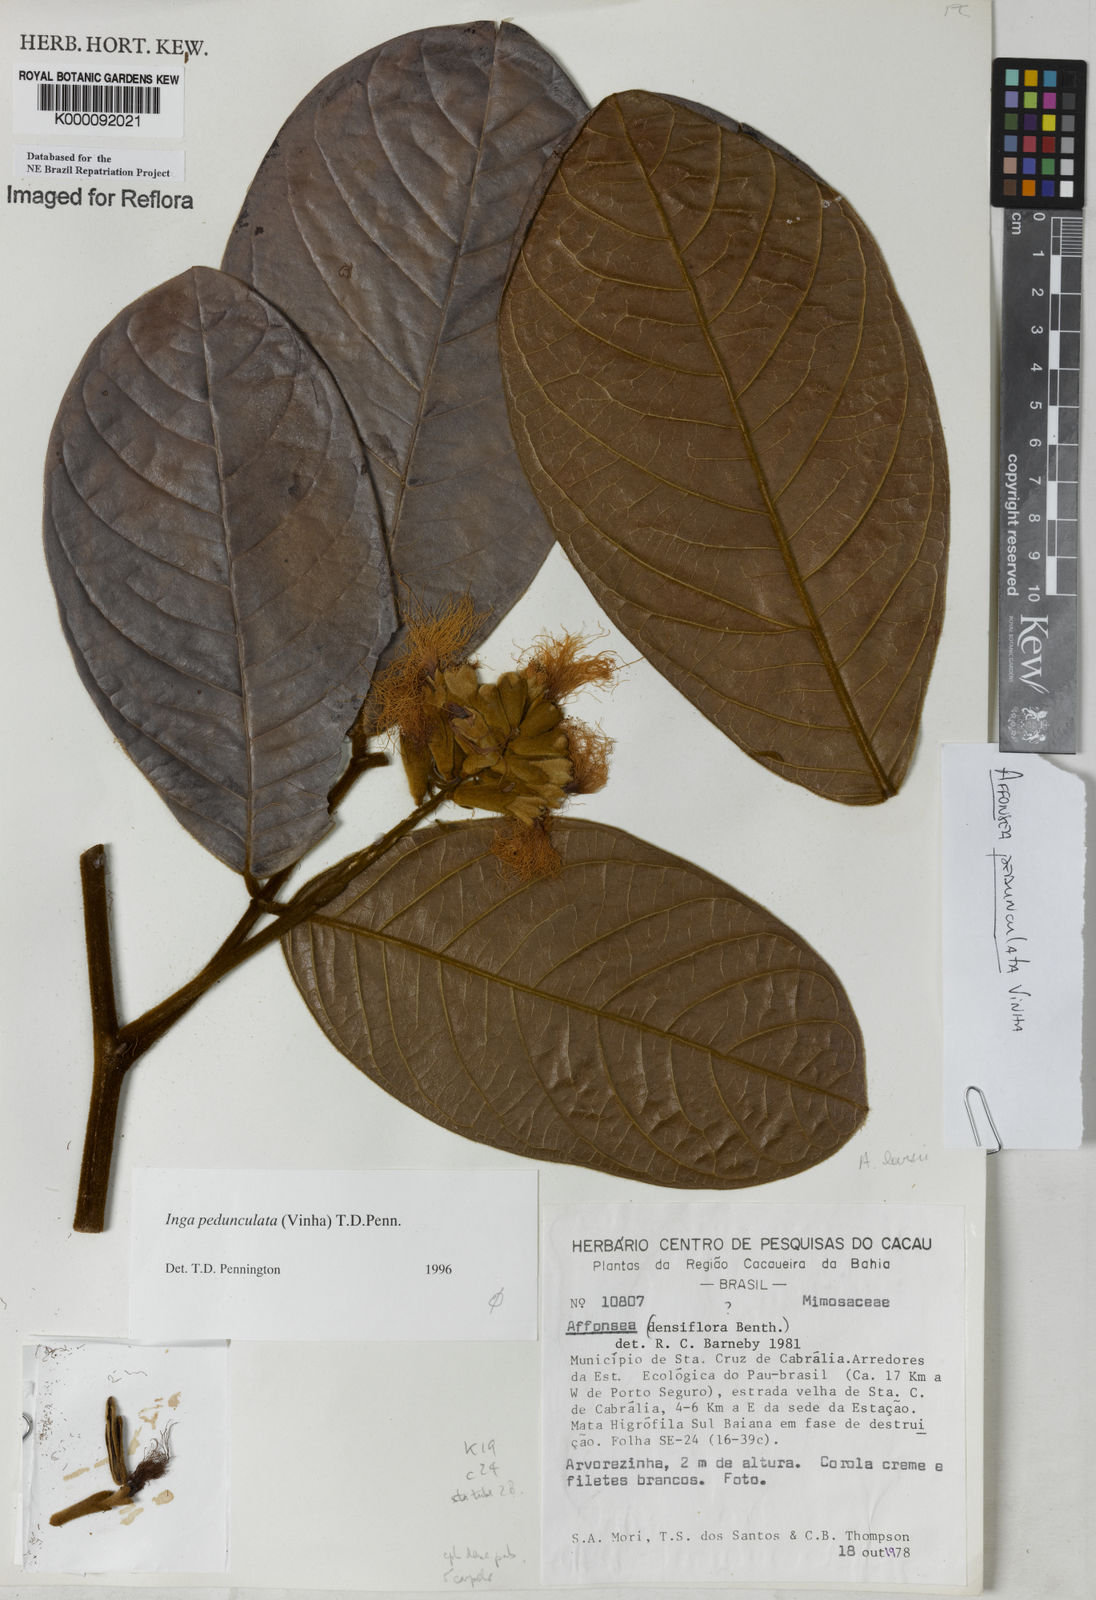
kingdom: Plantae
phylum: Tracheophyta
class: Magnoliopsida
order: Fabales
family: Fabaceae
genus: Inga
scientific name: Inga pedunculata
